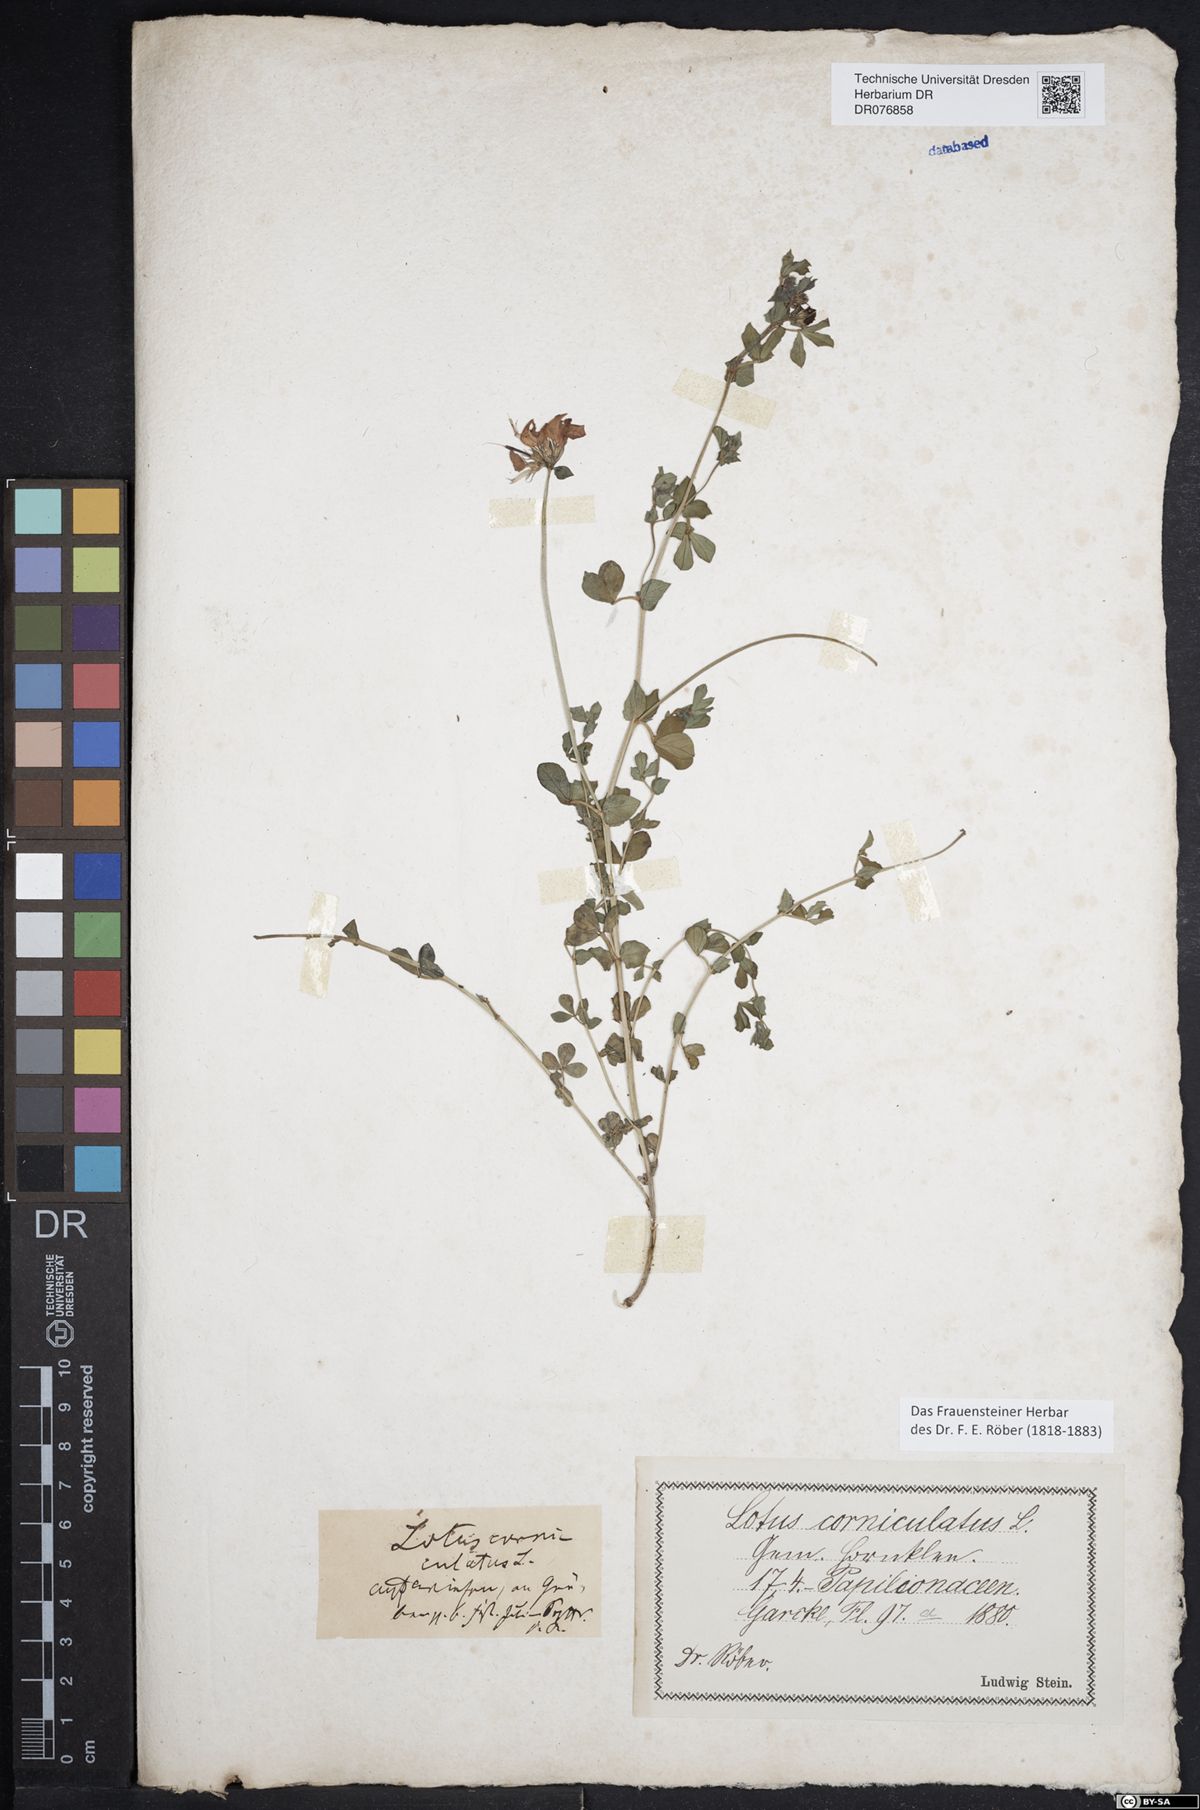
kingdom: Plantae
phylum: Tracheophyta
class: Magnoliopsida
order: Fabales
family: Fabaceae
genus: Lotus
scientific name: Lotus corniculatus
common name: Common bird's-foot-trefoil
